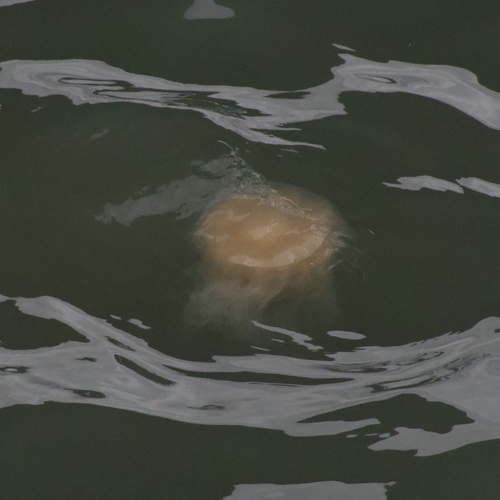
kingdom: Animalia
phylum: Cnidaria
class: Scyphozoa
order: Semaeostomeae
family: Cyaneidae
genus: Cyanea
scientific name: Cyanea nozakii
